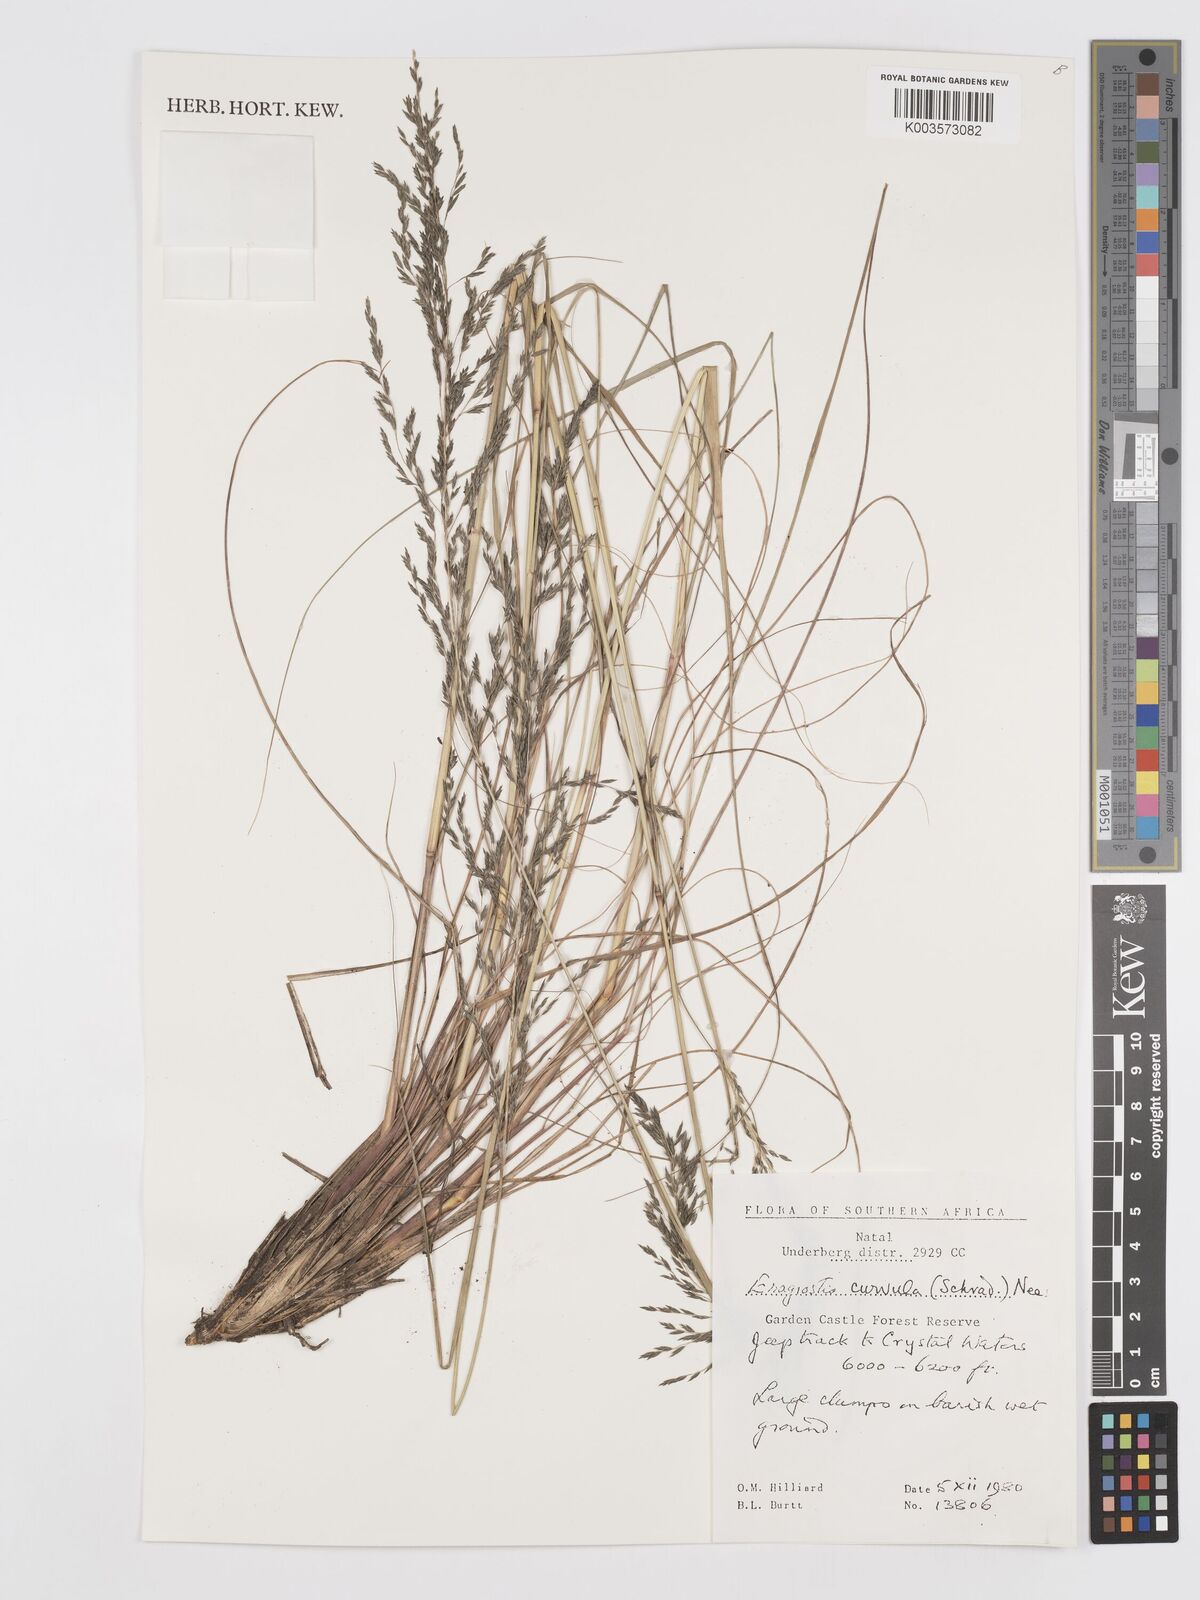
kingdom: Plantae
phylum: Tracheophyta
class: Liliopsida
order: Poales
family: Poaceae
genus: Eragrostis
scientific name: Eragrostis curvula
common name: African love-grass
